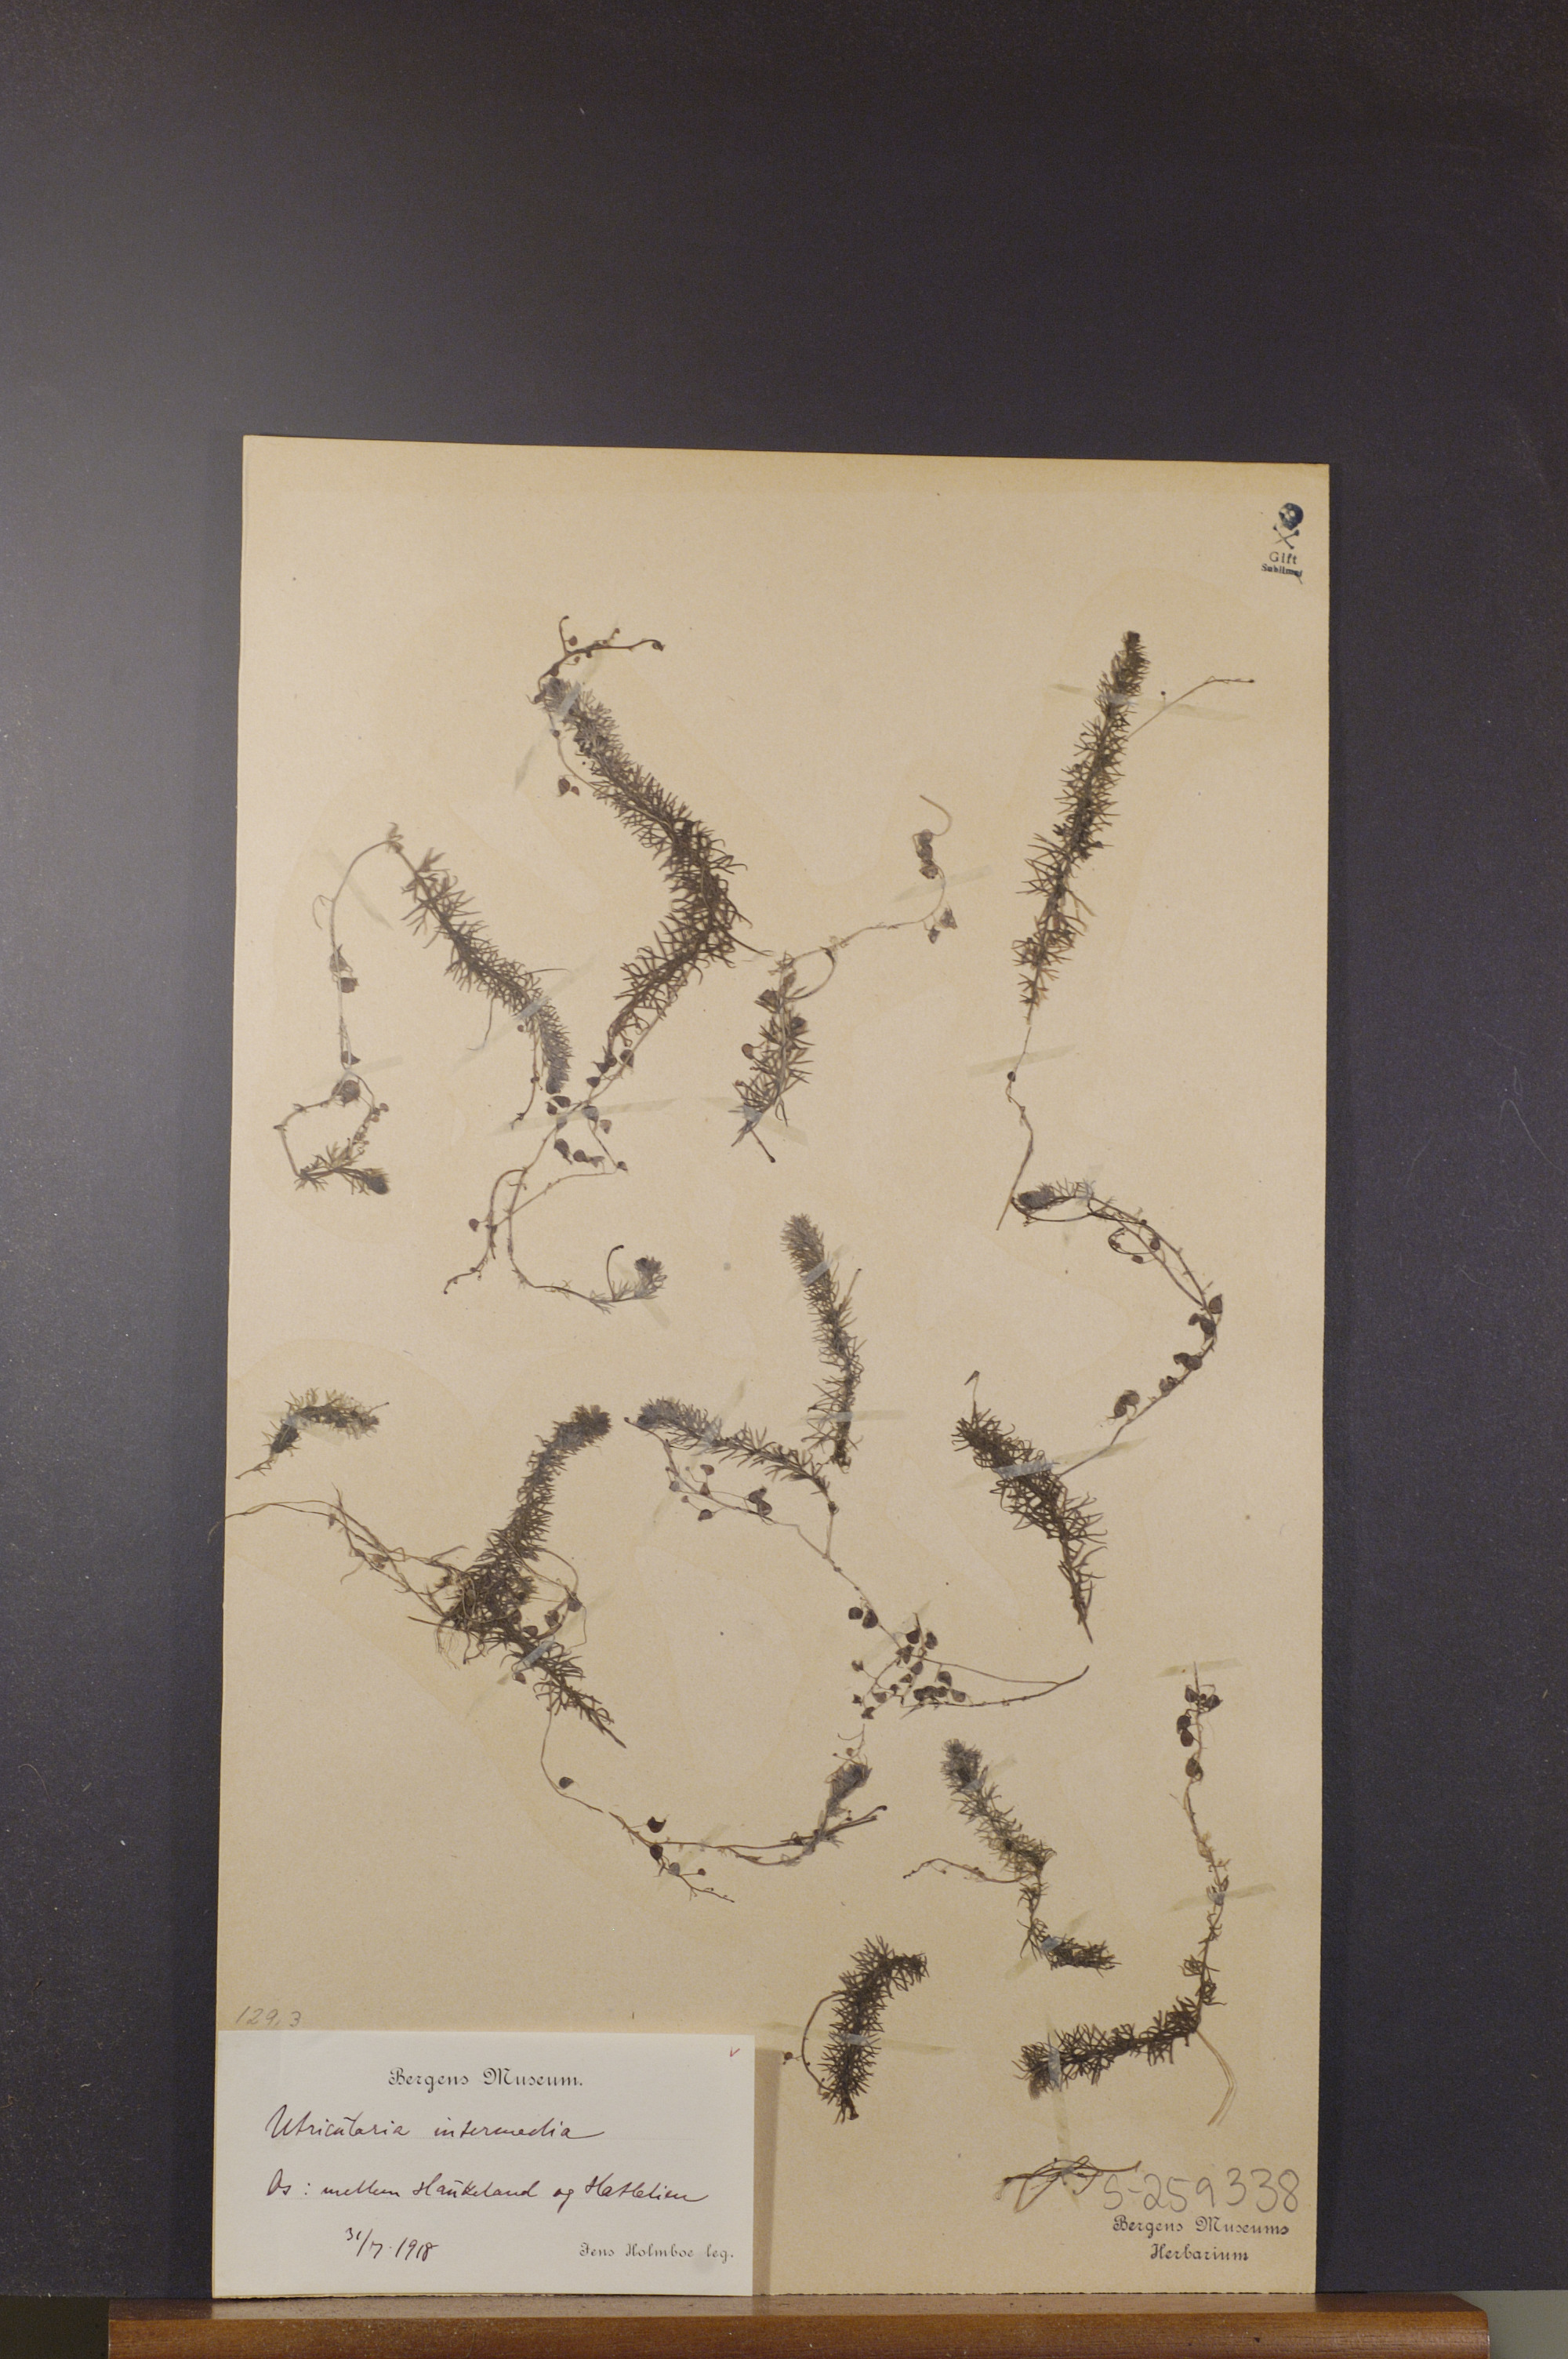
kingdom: Plantae
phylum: Tracheophyta
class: Magnoliopsida
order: Lamiales
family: Lentibulariaceae
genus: Utricularia
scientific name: Utricularia intermedia
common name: Intermediate bladderwort
